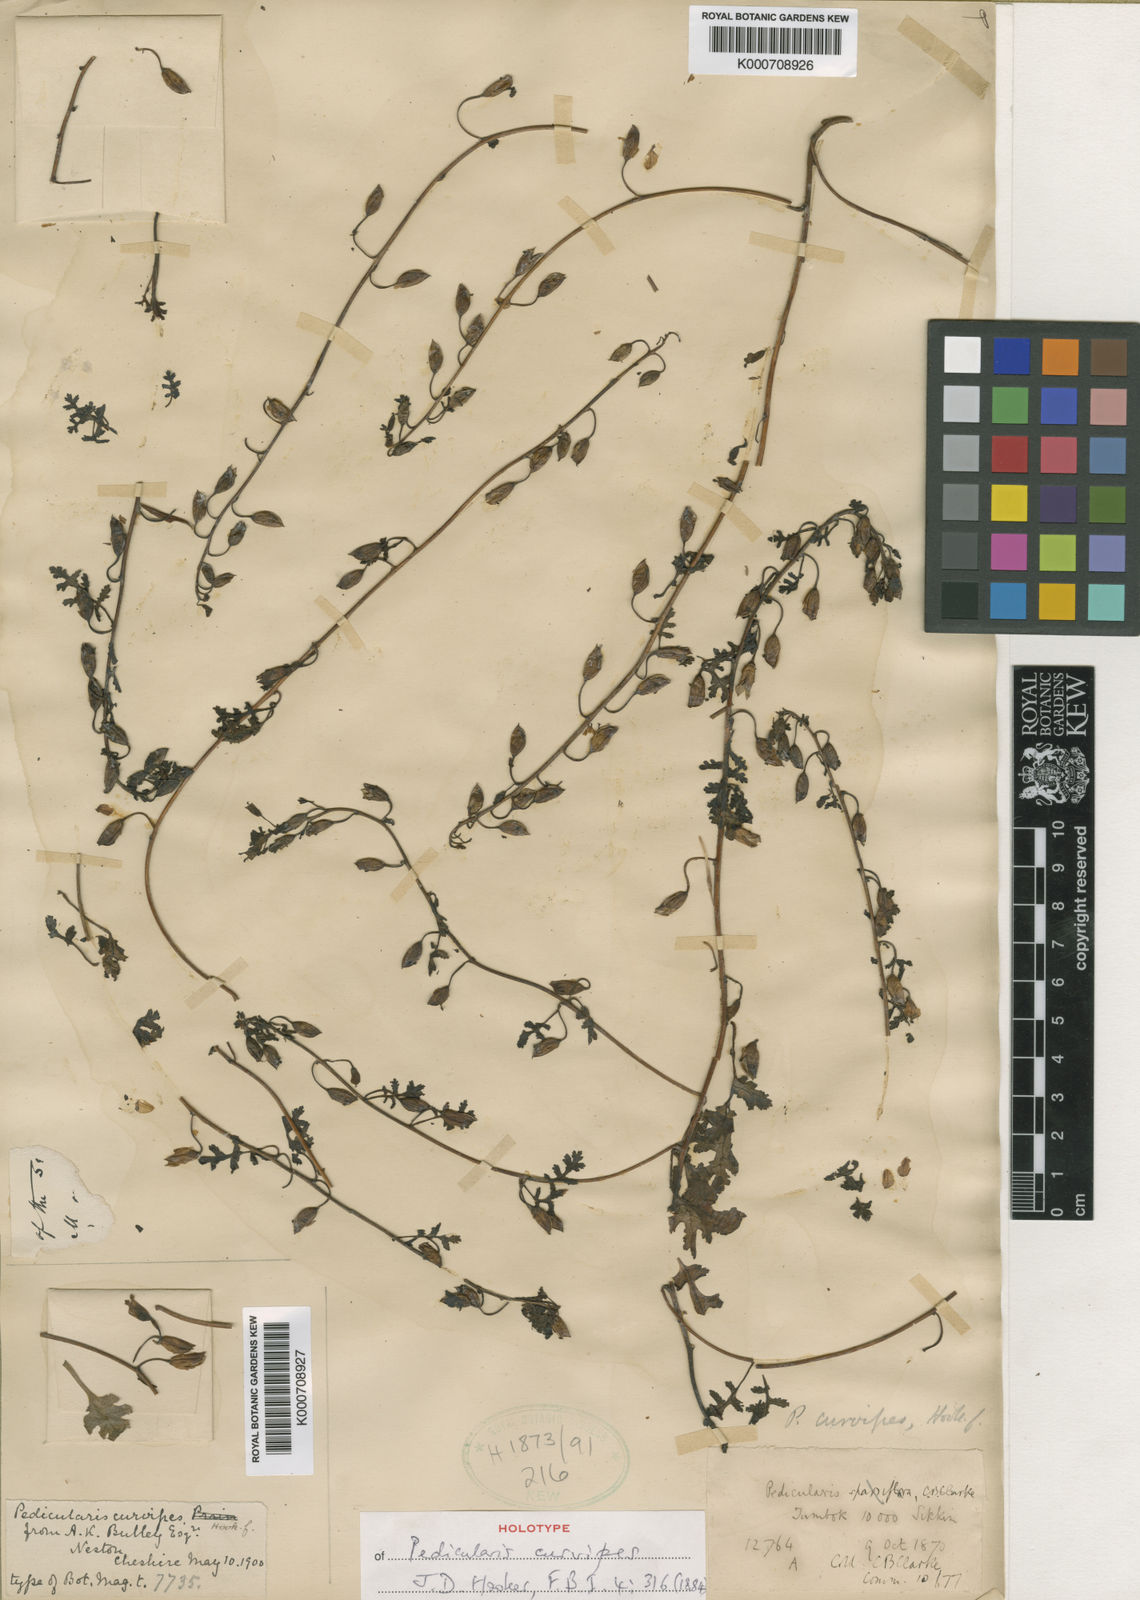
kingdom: Plantae
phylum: Tracheophyta
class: Magnoliopsida
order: Lamiales
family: Orobanchaceae
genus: Pedicularis
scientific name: Pedicularis curvipes
